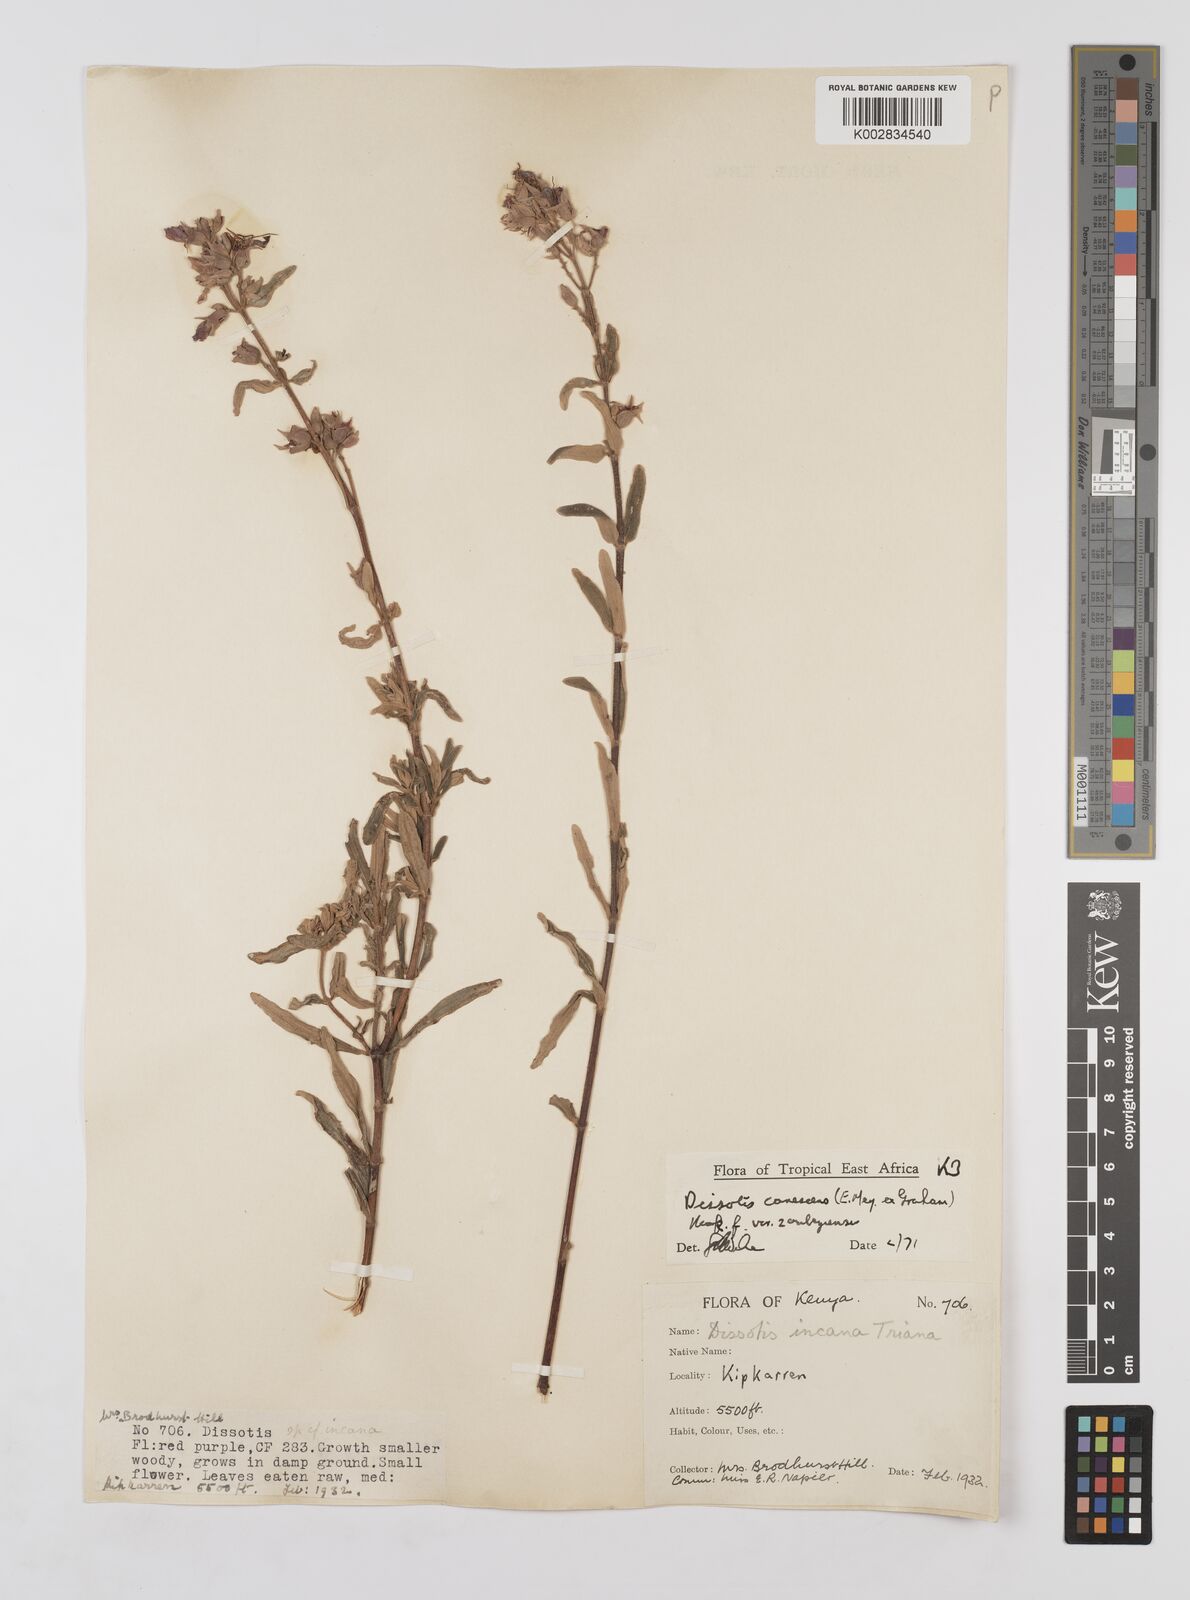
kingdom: Plantae
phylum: Tracheophyta
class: Magnoliopsida
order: Myrtales
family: Melastomataceae
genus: Argyrella
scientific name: Argyrella canescens
